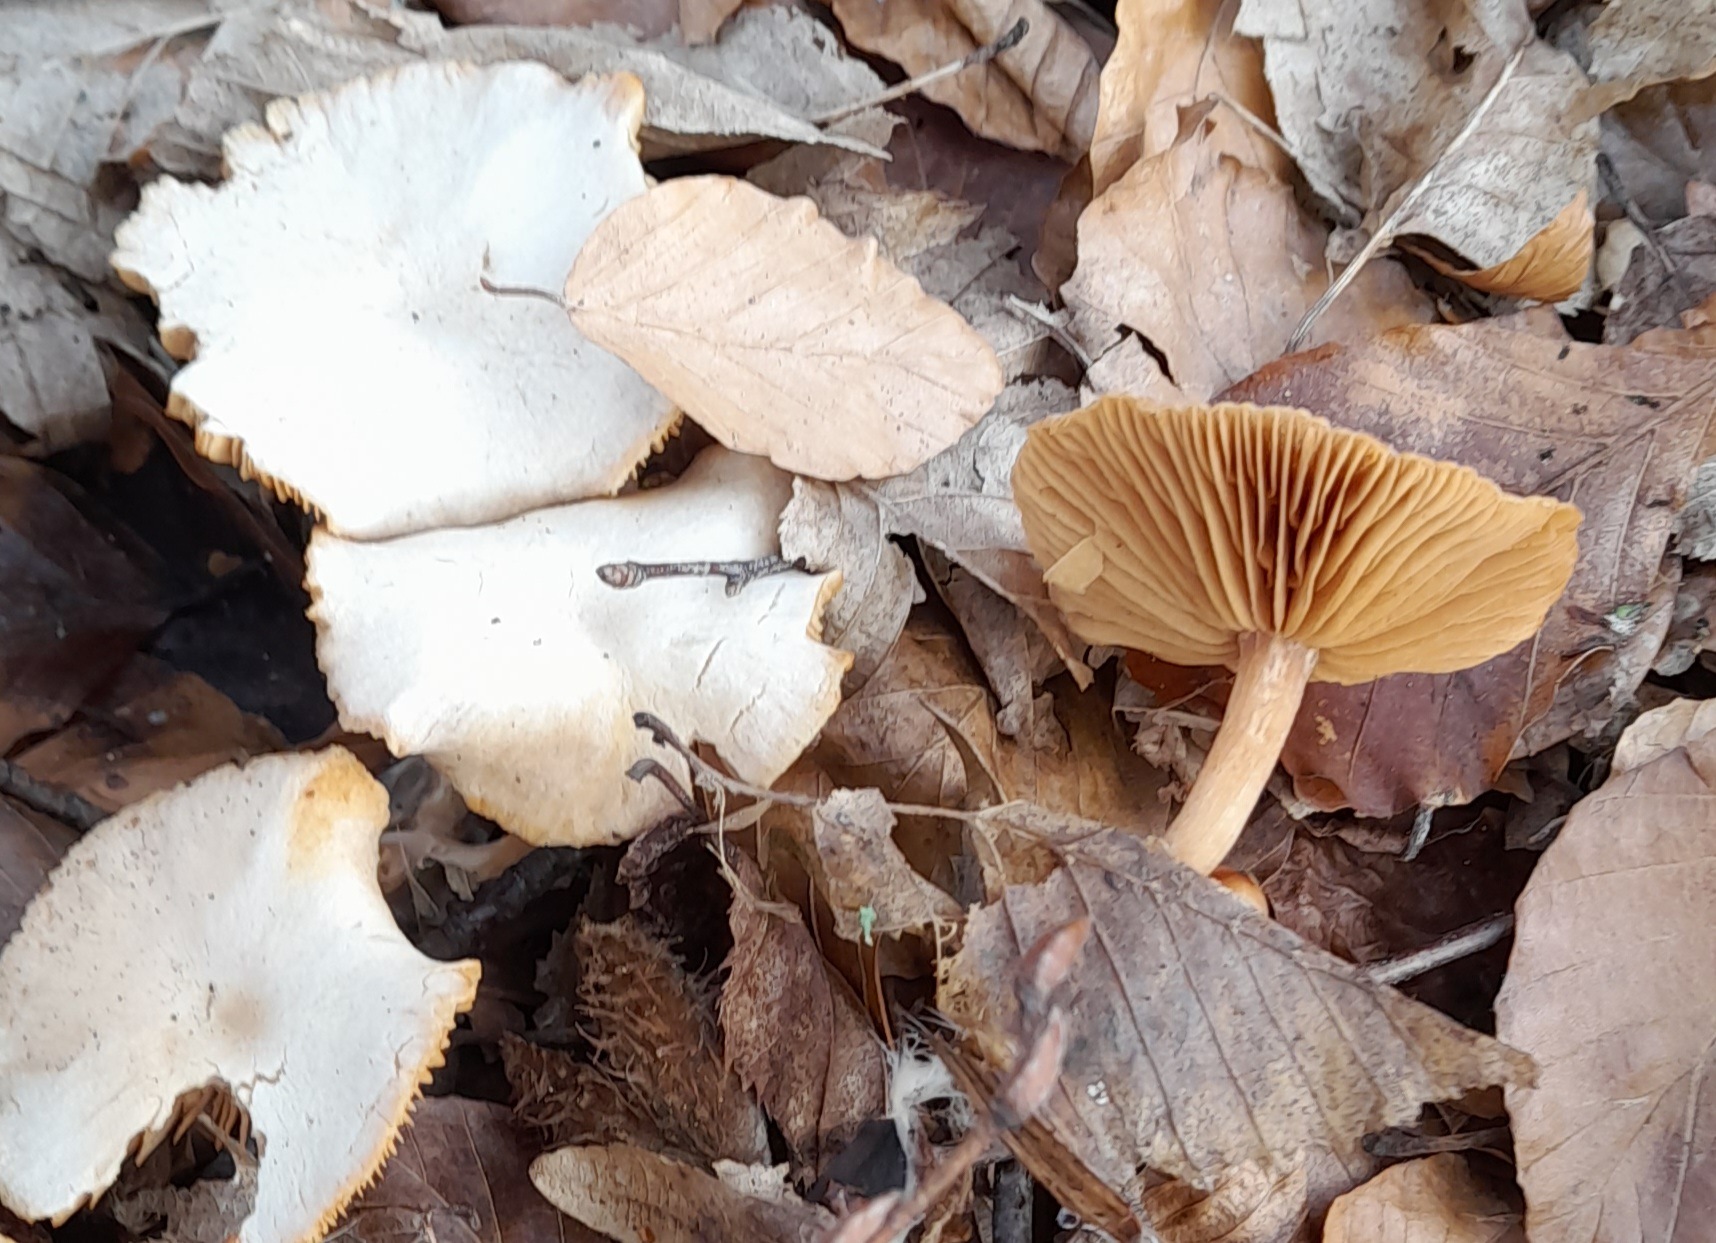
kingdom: Fungi
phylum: Basidiomycota
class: Agaricomycetes
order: Agaricales
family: Tubariaceae
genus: Tubaria
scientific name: Tubaria furfuracea
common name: kliddet fnughat
